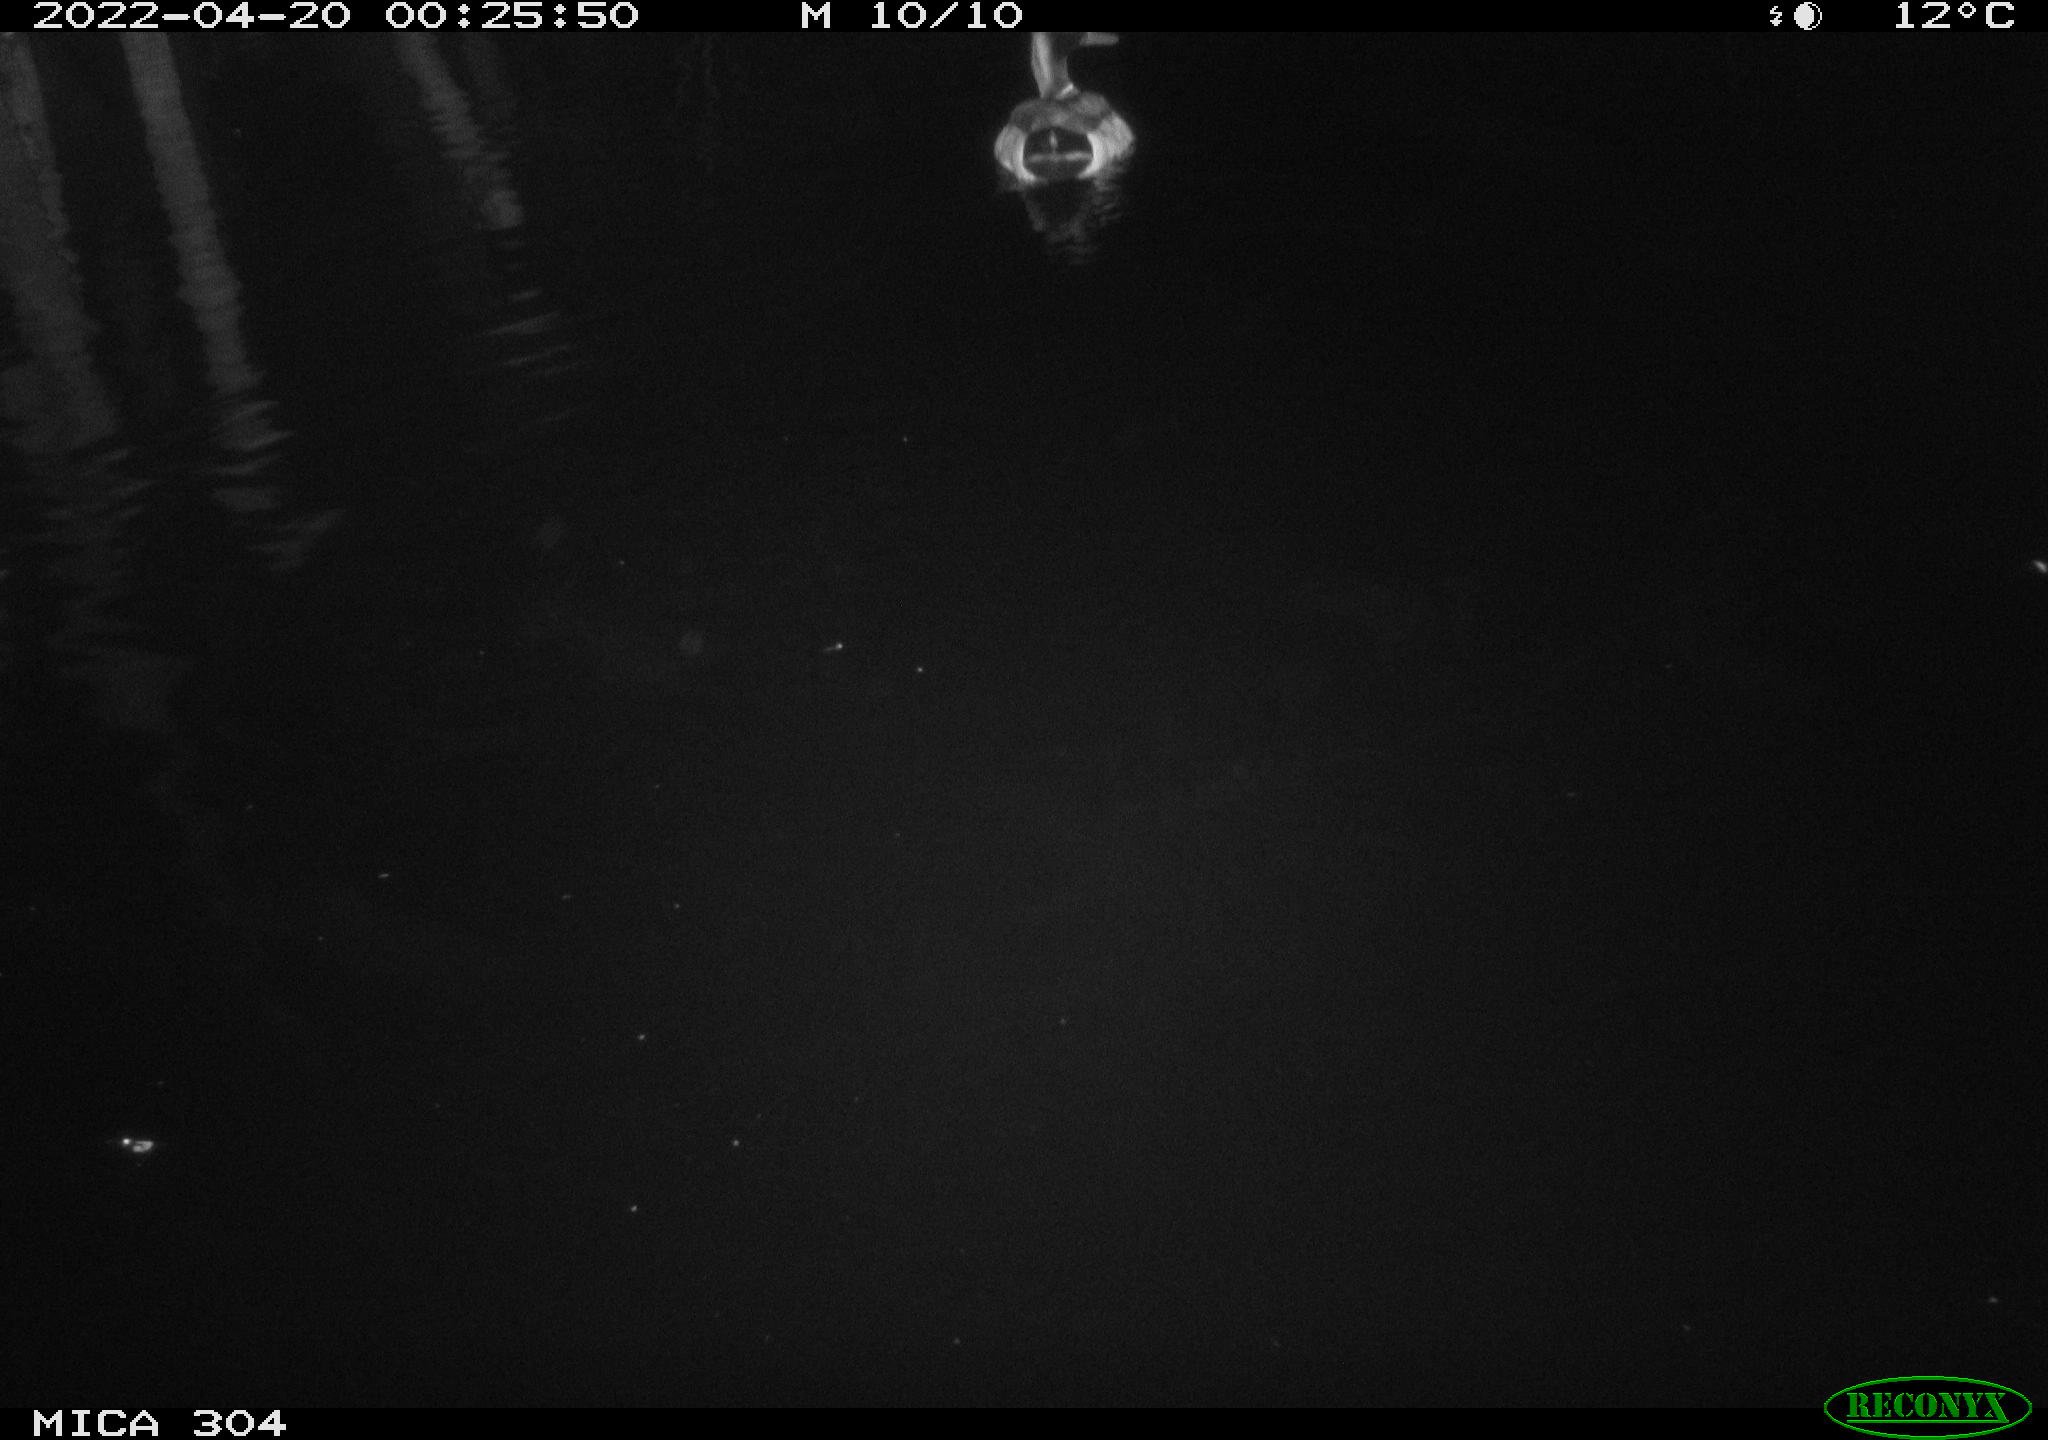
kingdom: Animalia
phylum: Chordata
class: Aves
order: Anseriformes
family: Anatidae
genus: Anas
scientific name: Anas platyrhynchos
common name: Mallard
